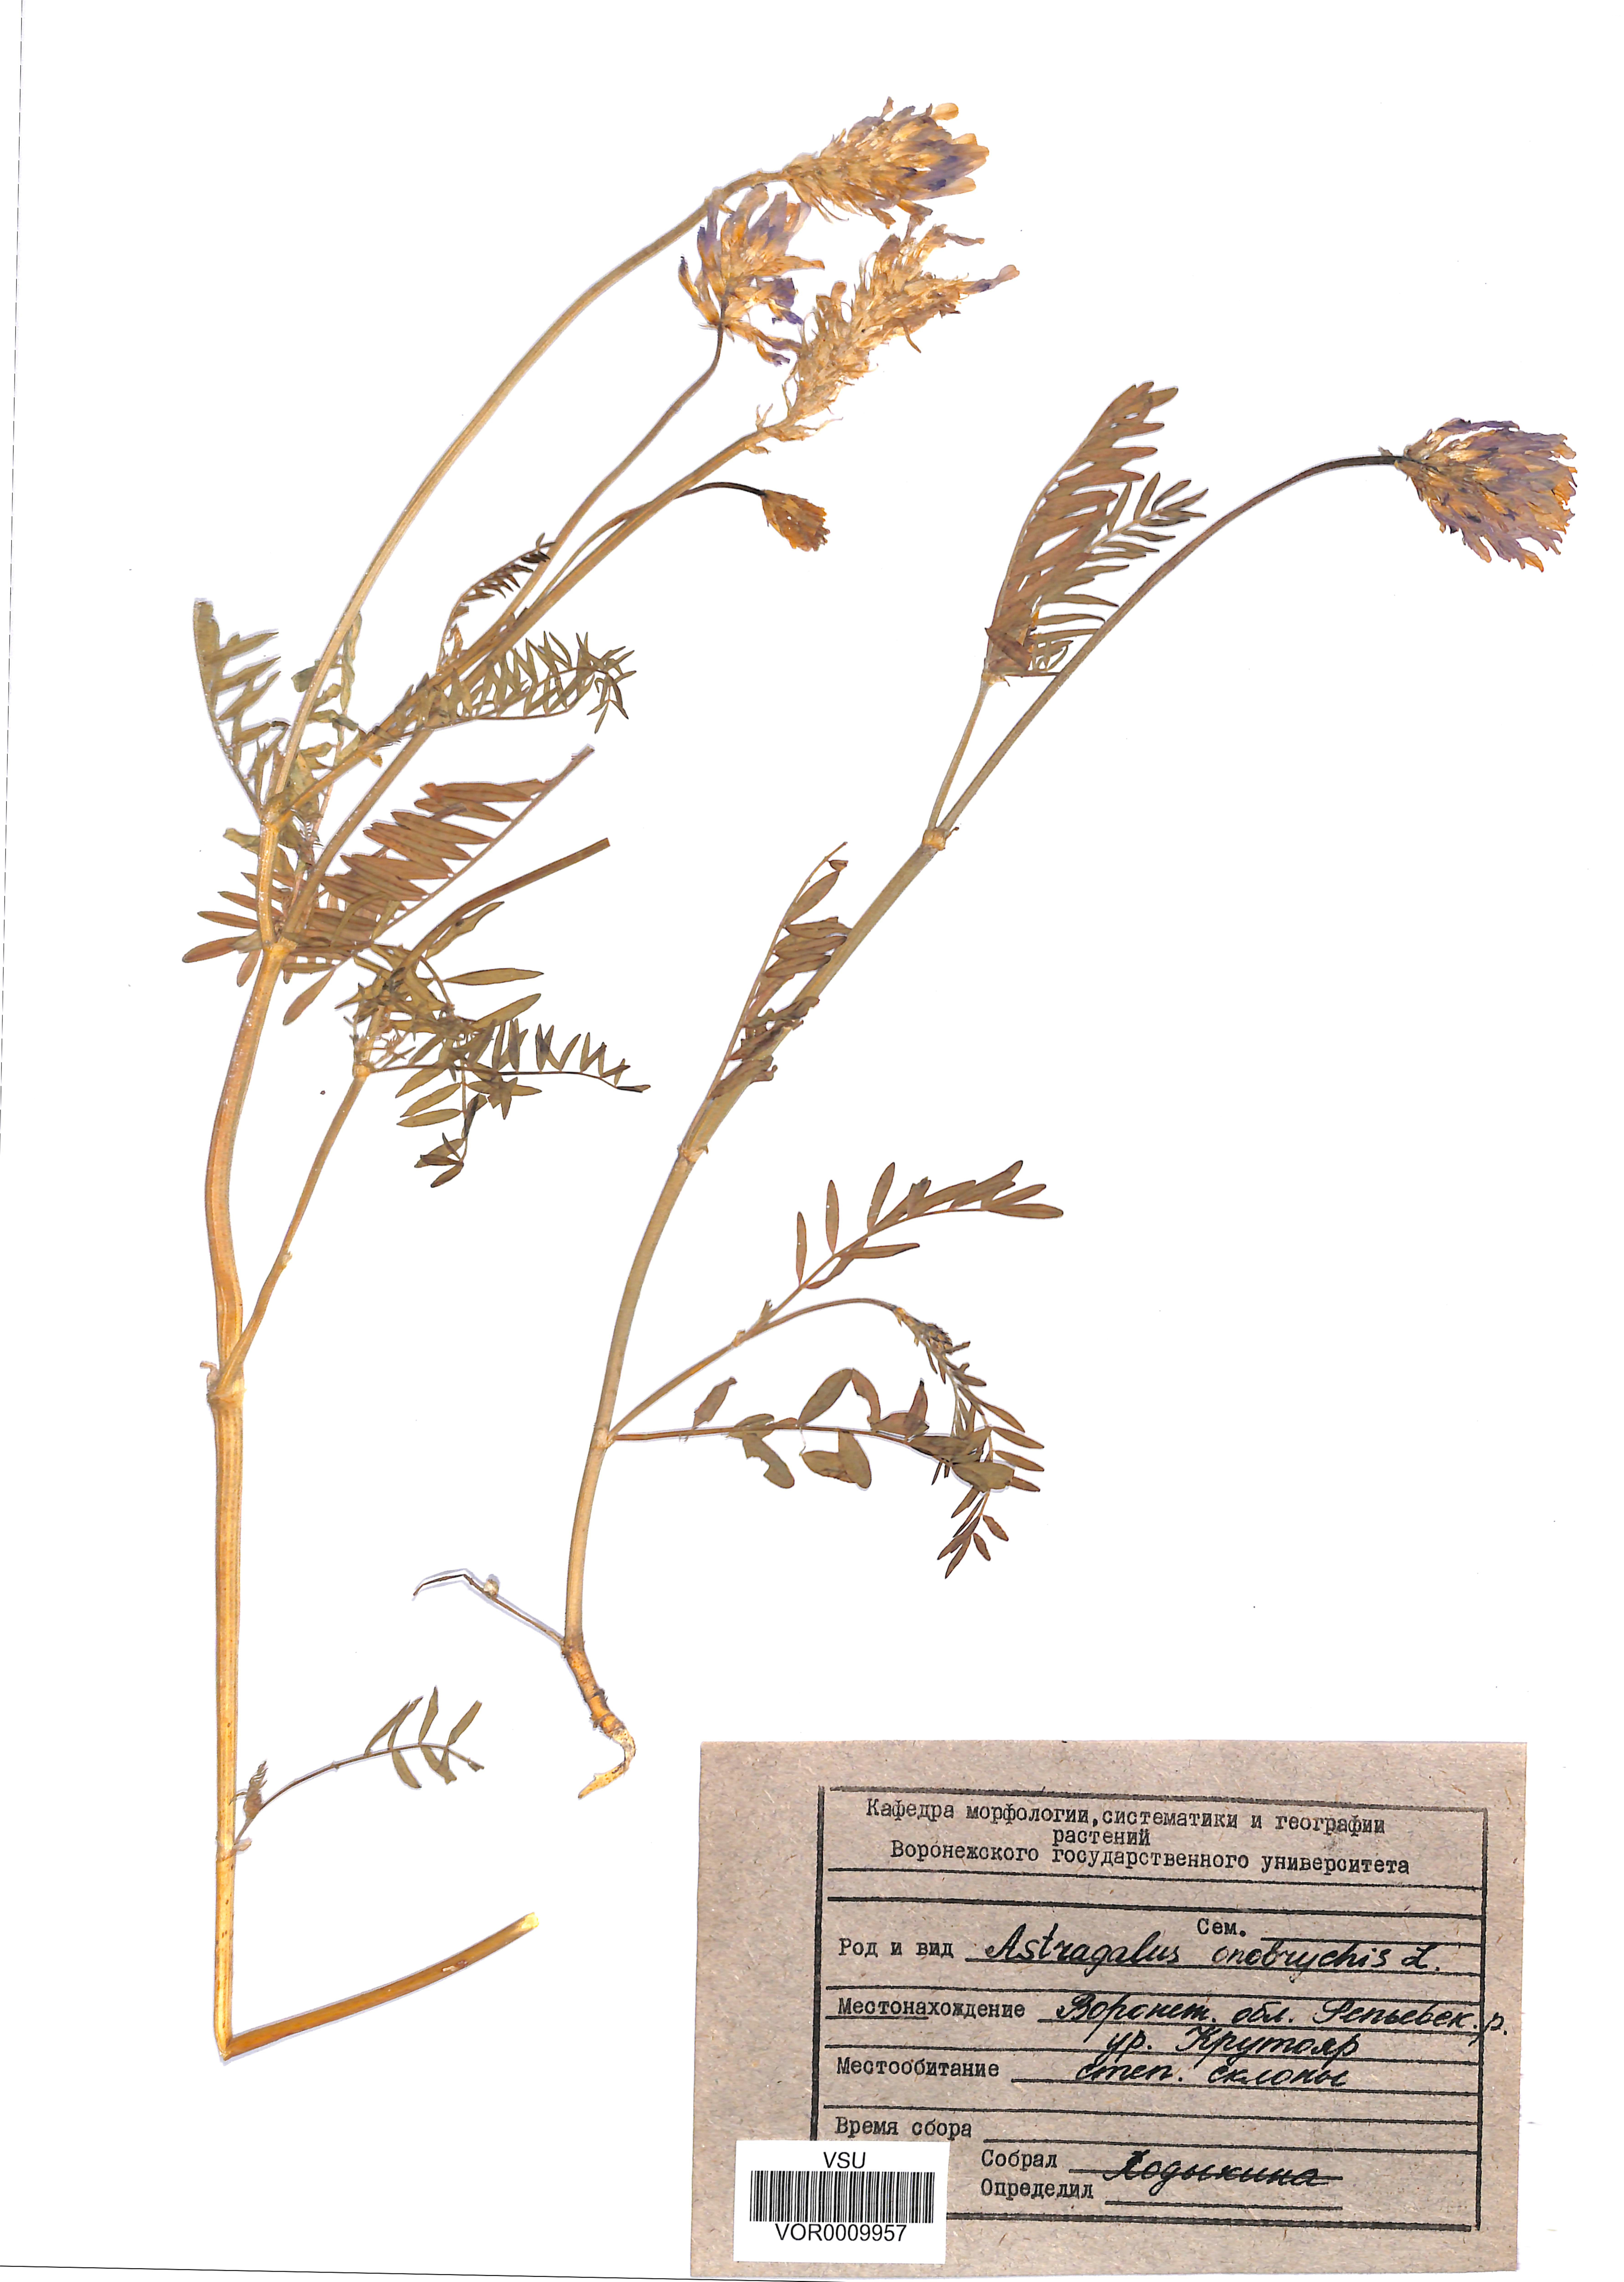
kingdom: Plantae
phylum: Tracheophyta
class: Magnoliopsida
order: Fabales
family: Fabaceae
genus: Astragalus
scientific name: Astragalus onobrychis
